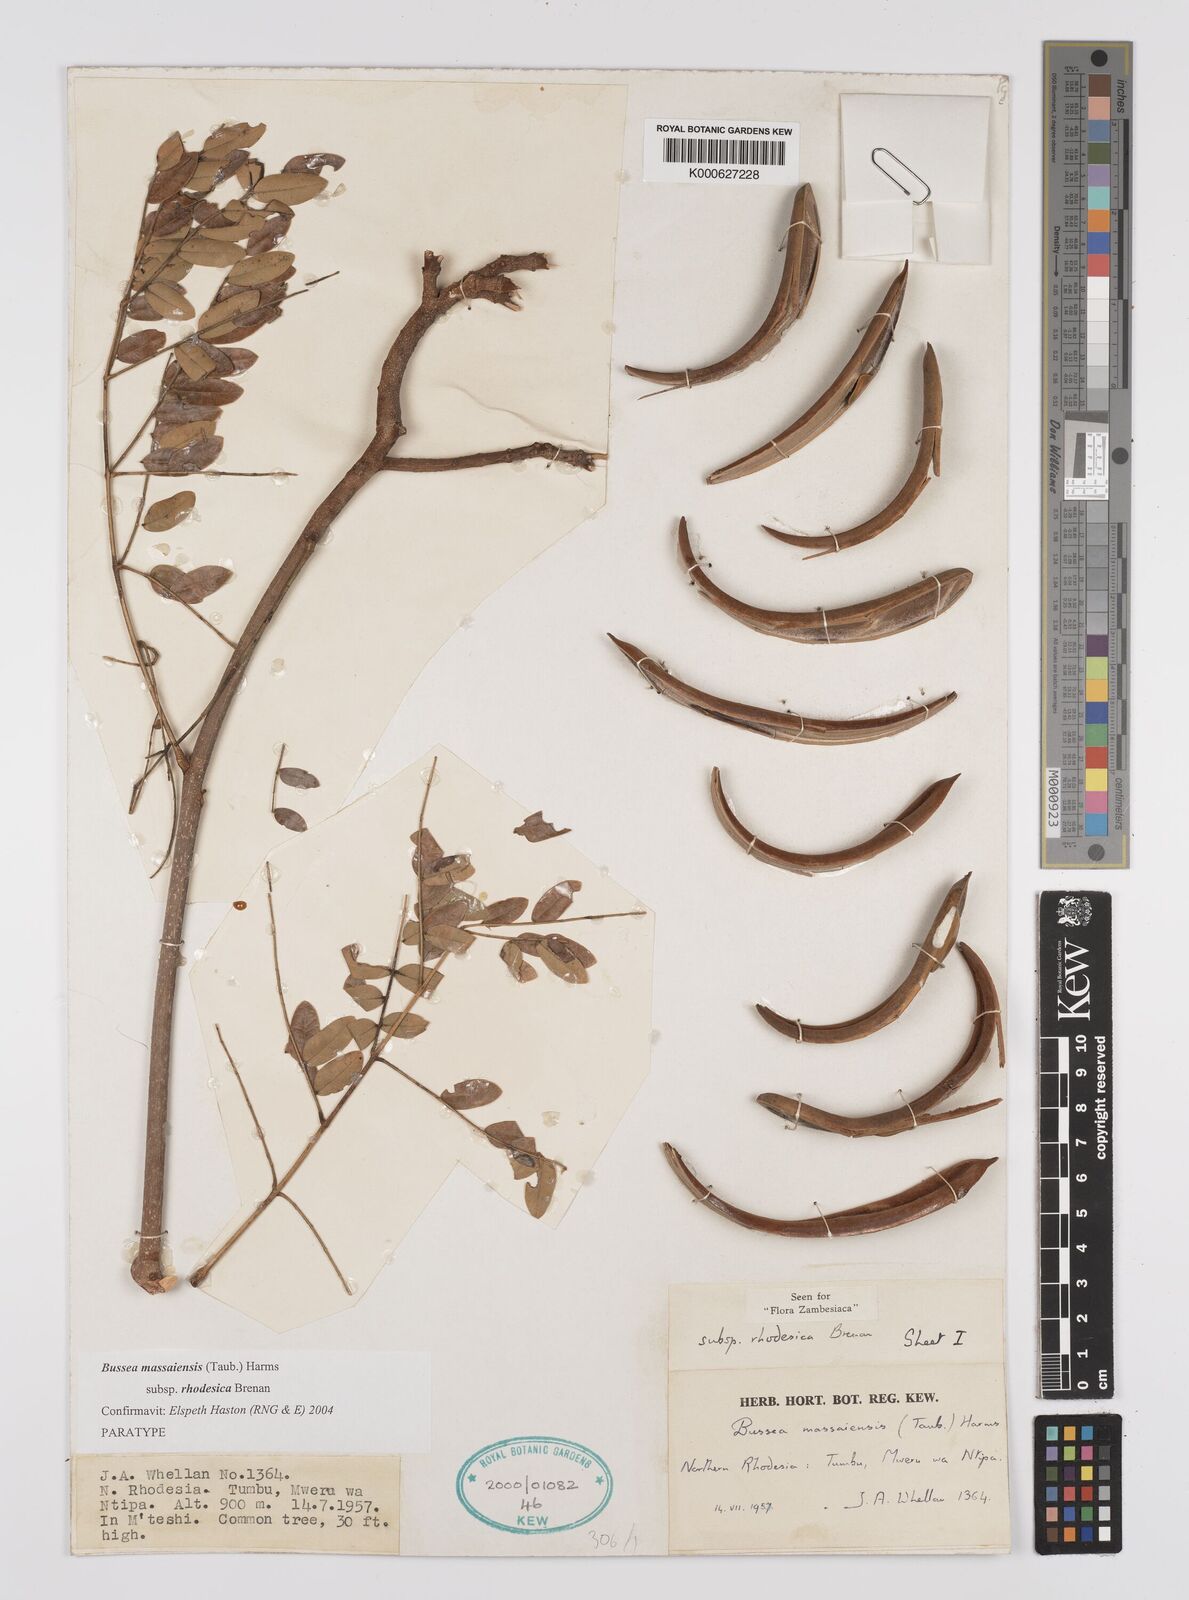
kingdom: Plantae
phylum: Tracheophyta
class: Magnoliopsida
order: Fabales
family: Fabaceae
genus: Bussea
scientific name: Bussea
